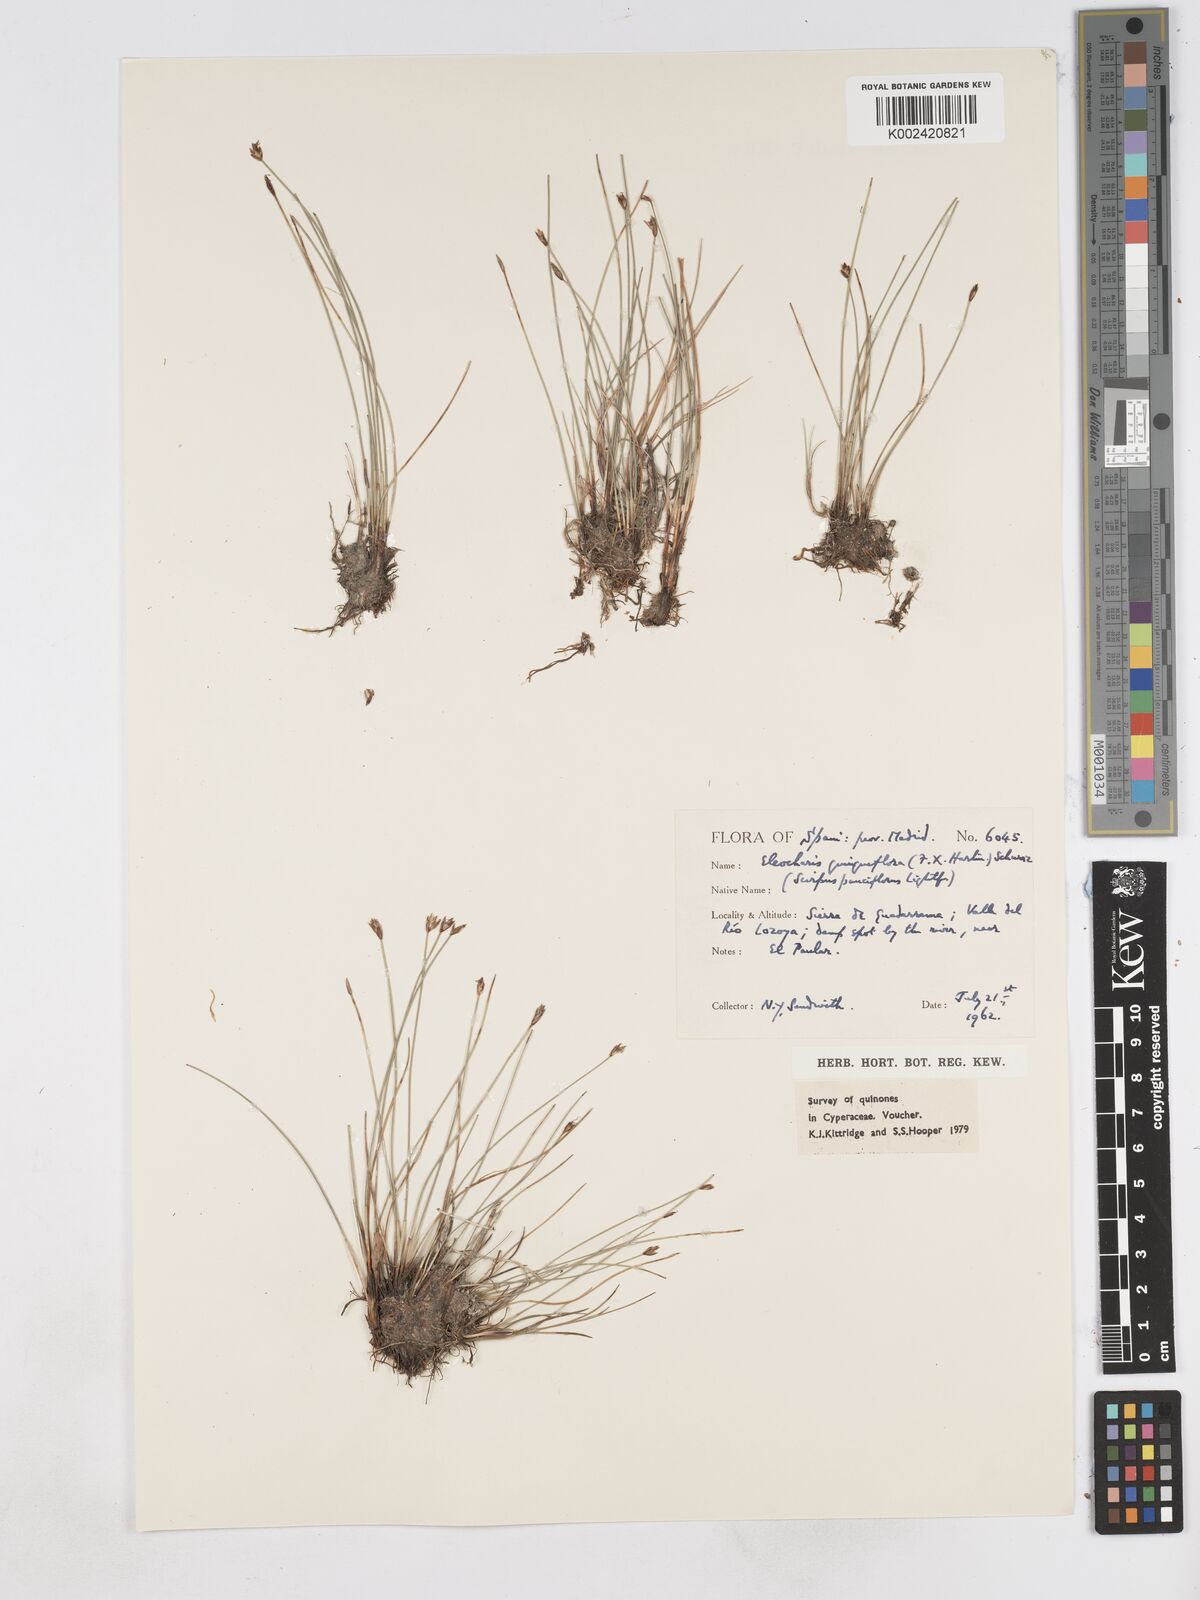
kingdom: Plantae
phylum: Tracheophyta
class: Liliopsida
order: Poales
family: Cyperaceae
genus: Eleocharis
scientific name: Eleocharis quinqueflora
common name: Few-flowered spike-rush
